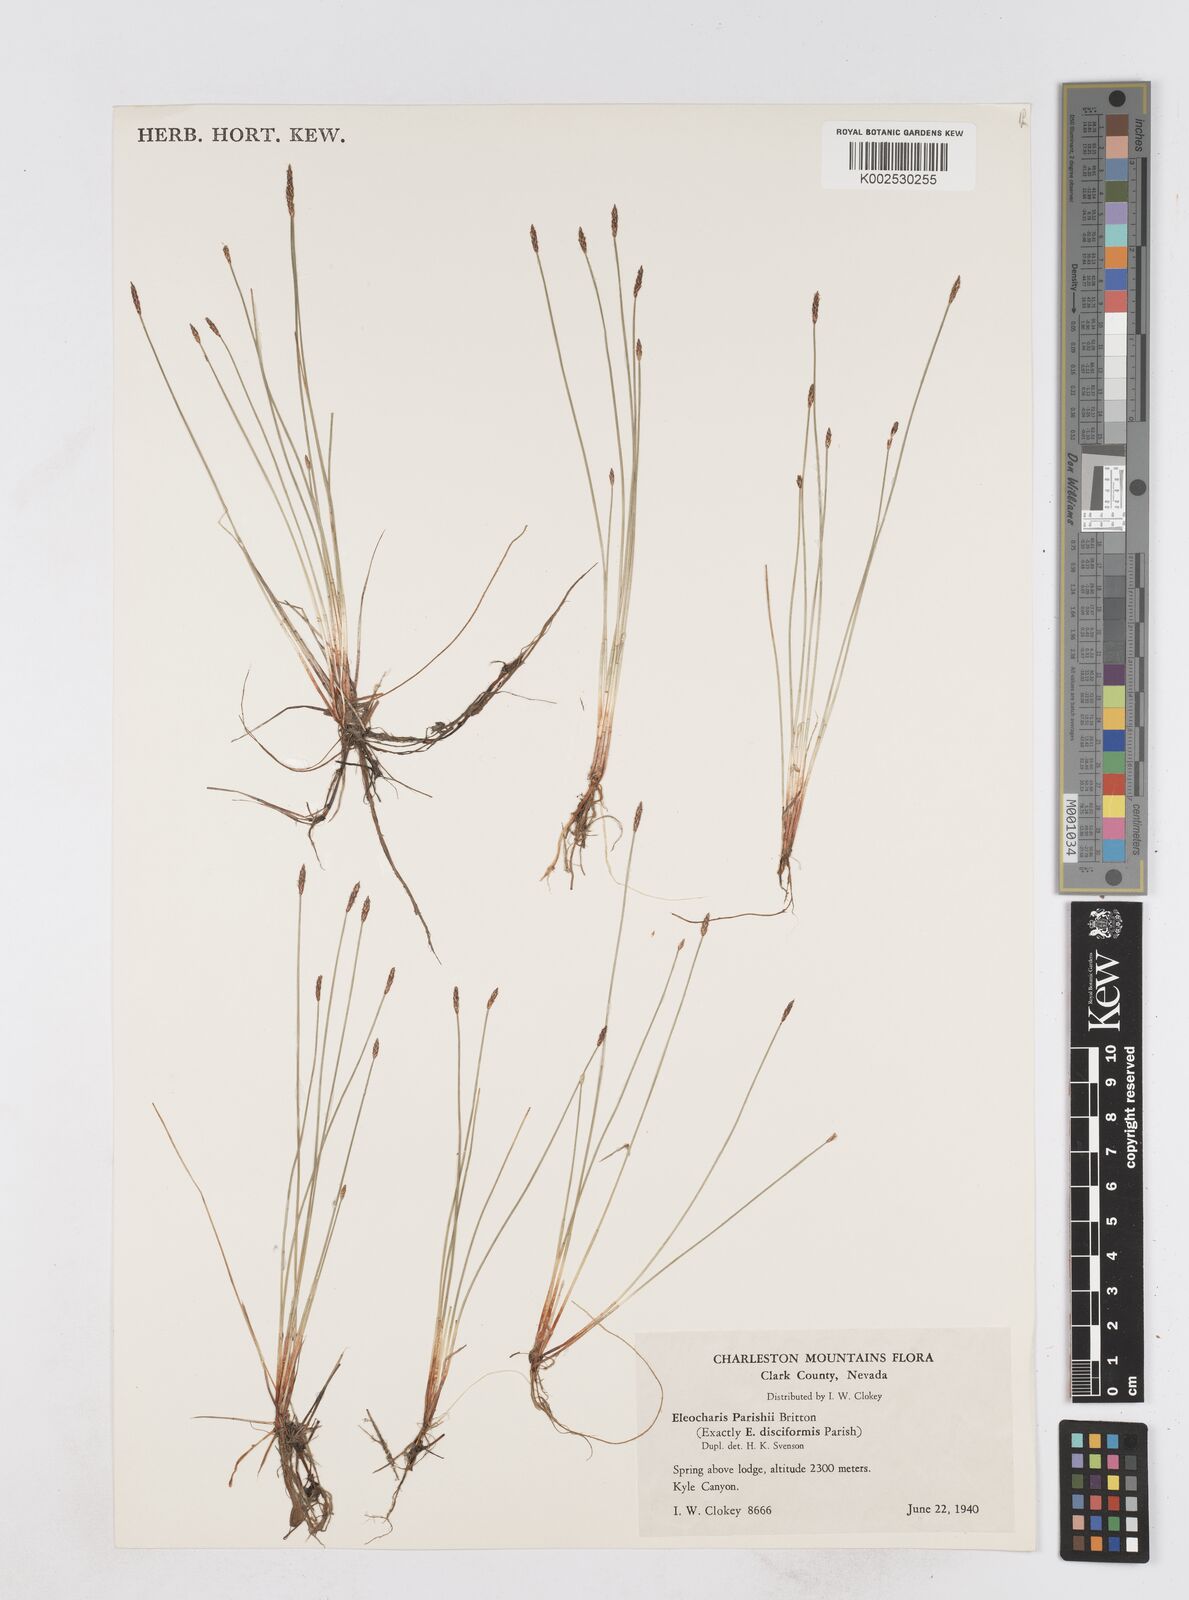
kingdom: Plantae
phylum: Tracheophyta
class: Liliopsida
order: Poales
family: Cyperaceae
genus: Eleocharis
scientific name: Eleocharis parishii
